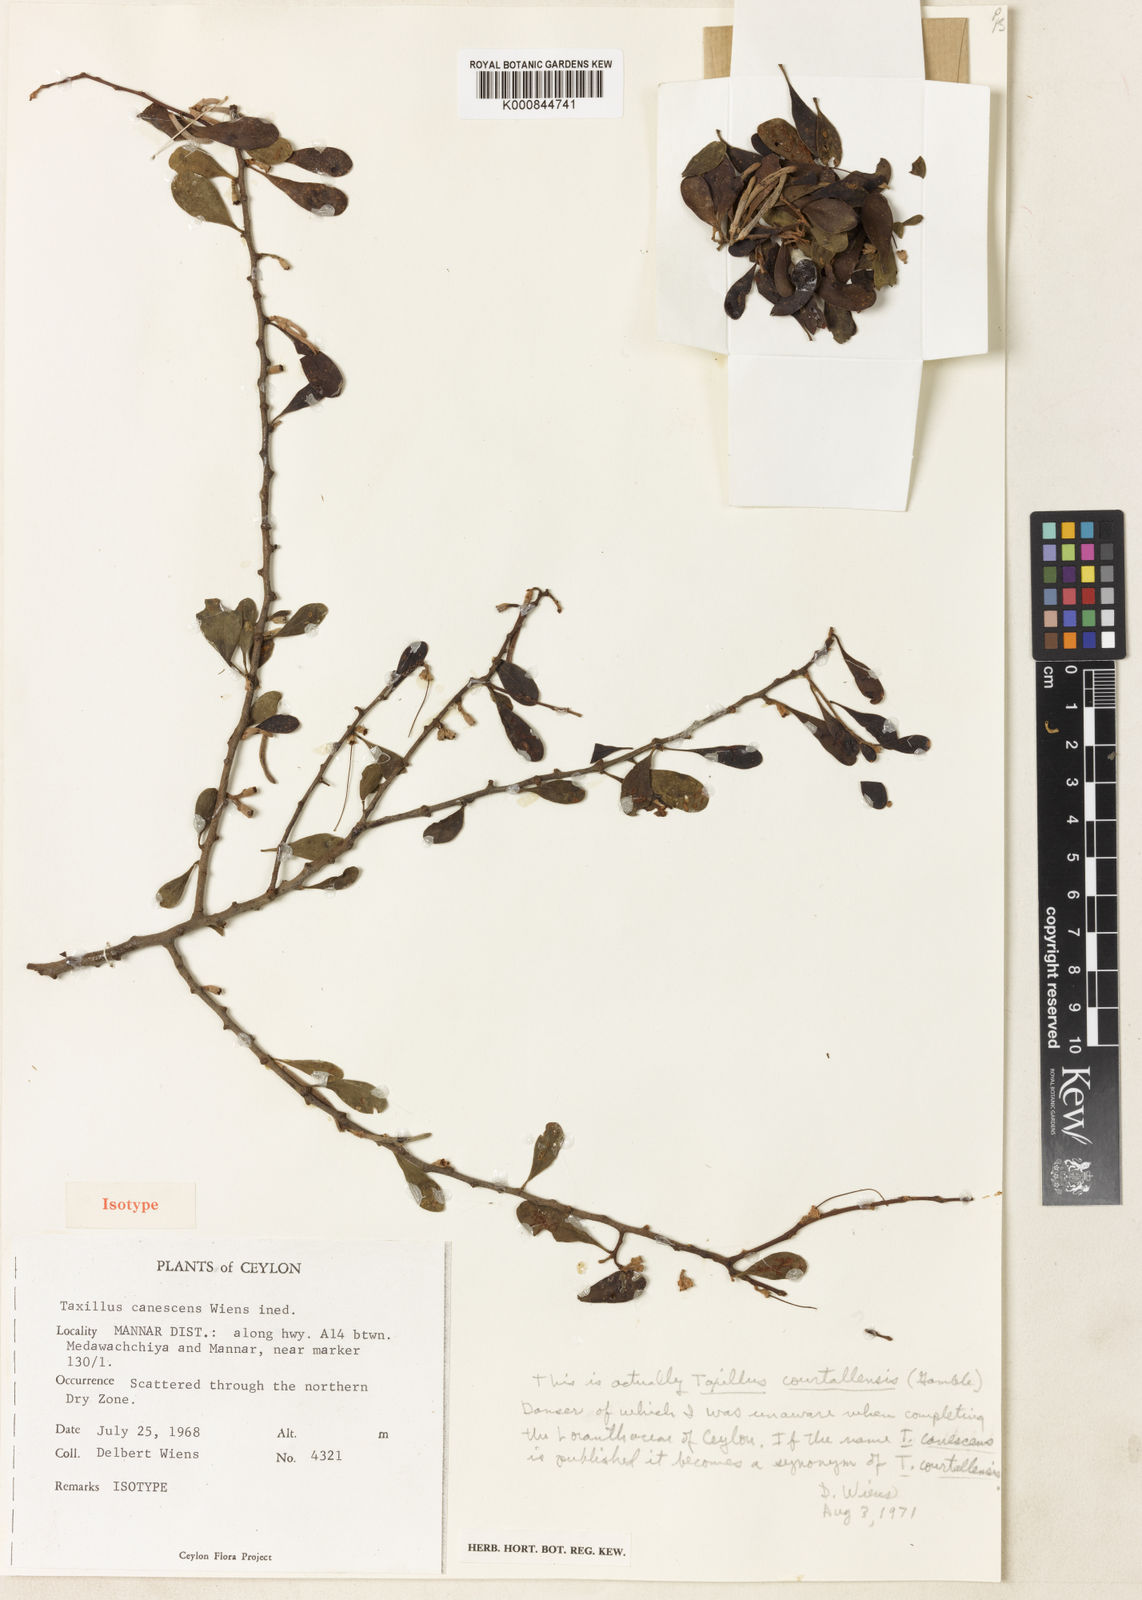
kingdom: Plantae
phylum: Tracheophyta
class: Magnoliopsida
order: Santalales
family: Loranthaceae
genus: Taxillus
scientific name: Taxillus courtallensis
